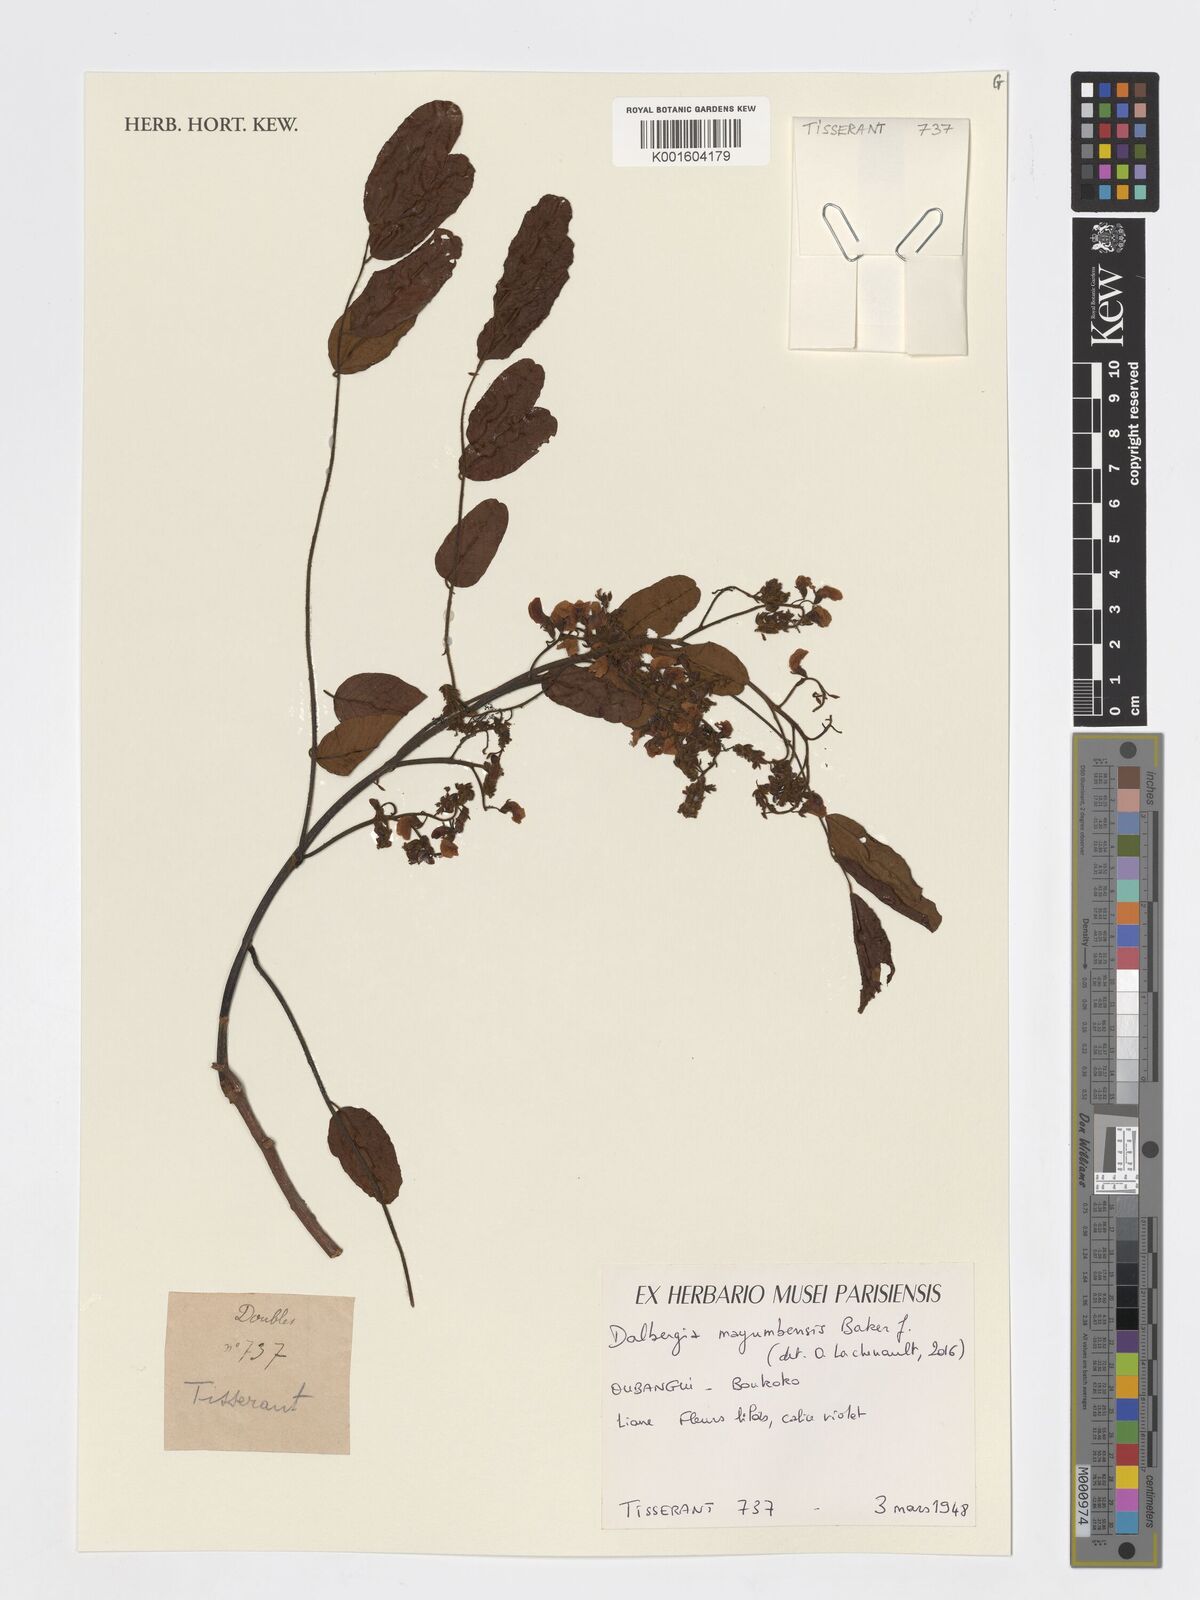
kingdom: Plantae
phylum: Tracheophyta
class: Magnoliopsida
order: Fabales
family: Fabaceae
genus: Dalbergia
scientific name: Dalbergia mayumbensis
